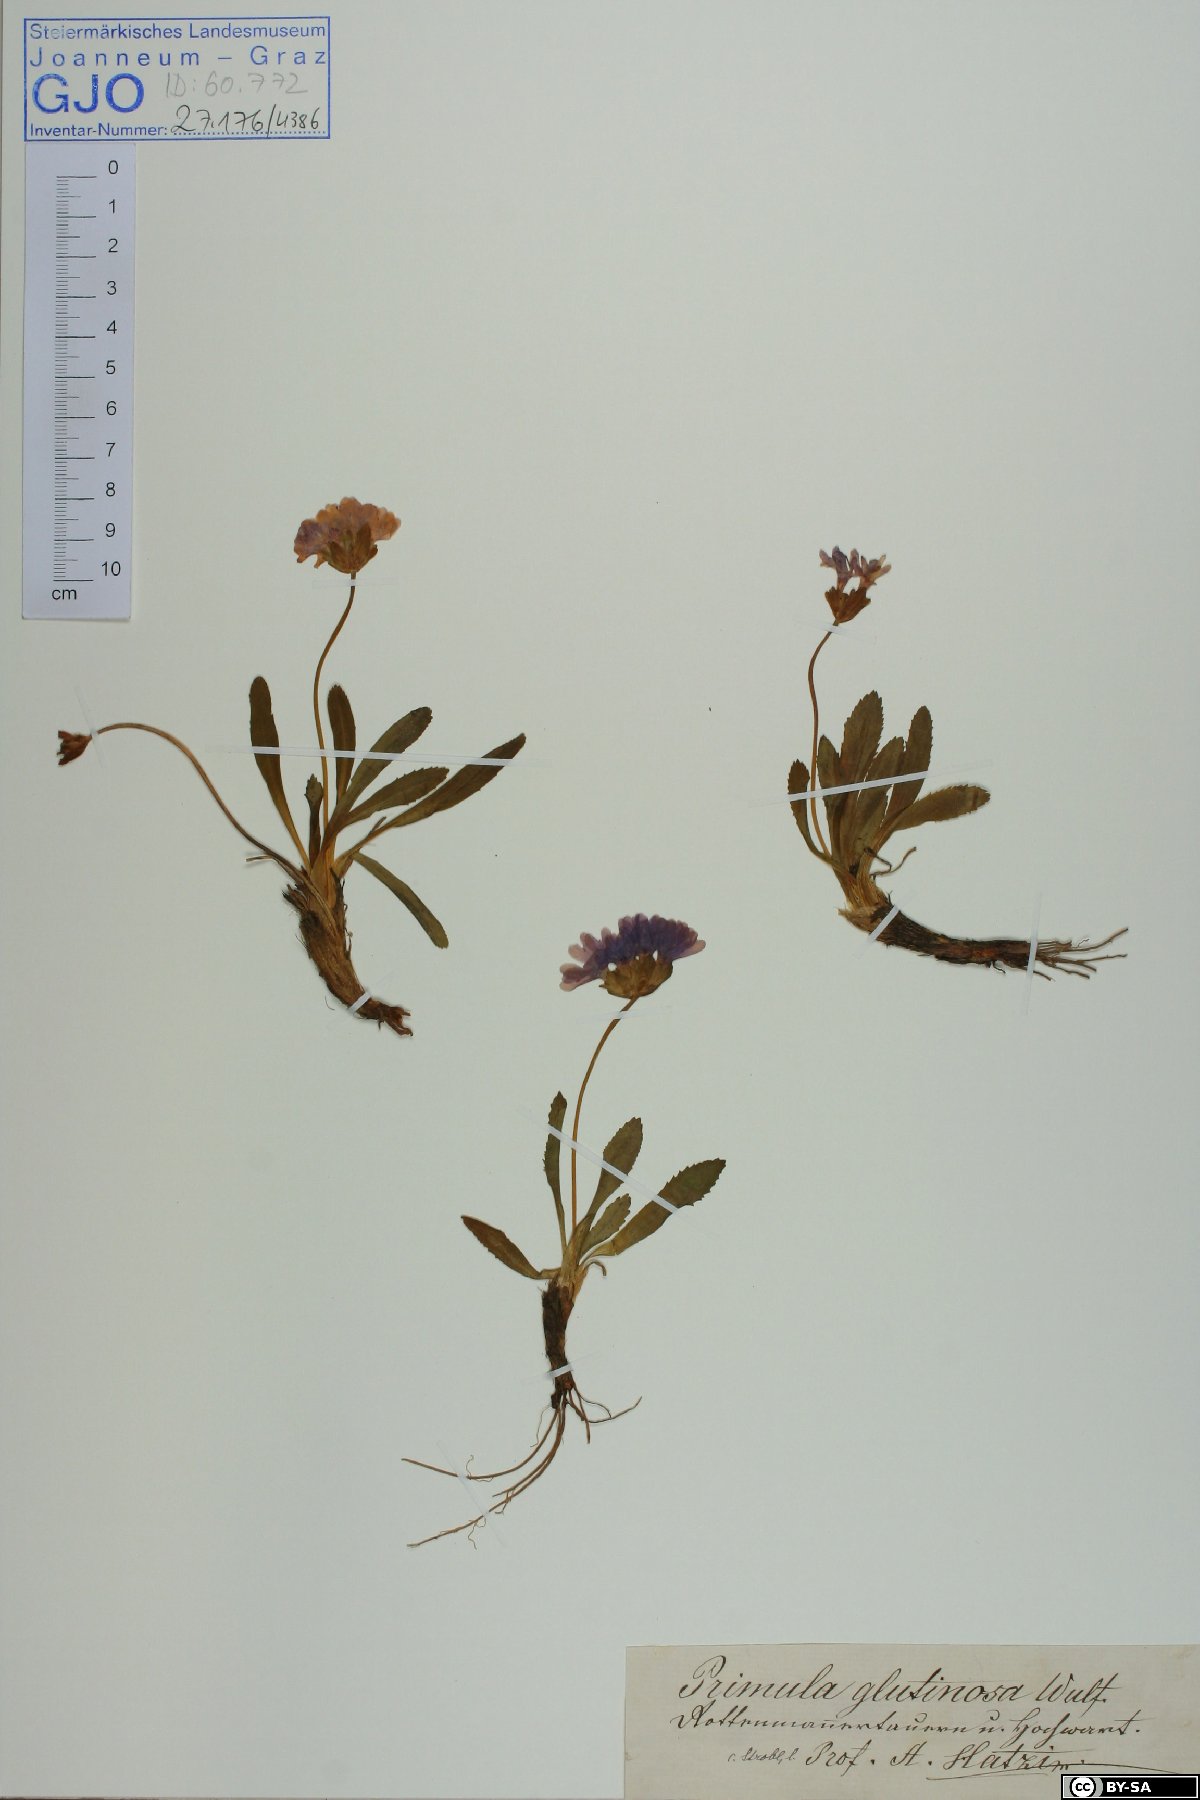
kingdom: Plantae
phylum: Tracheophyta
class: Magnoliopsida
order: Ericales
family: Primulaceae
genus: Primula
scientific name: Primula glutinosa
